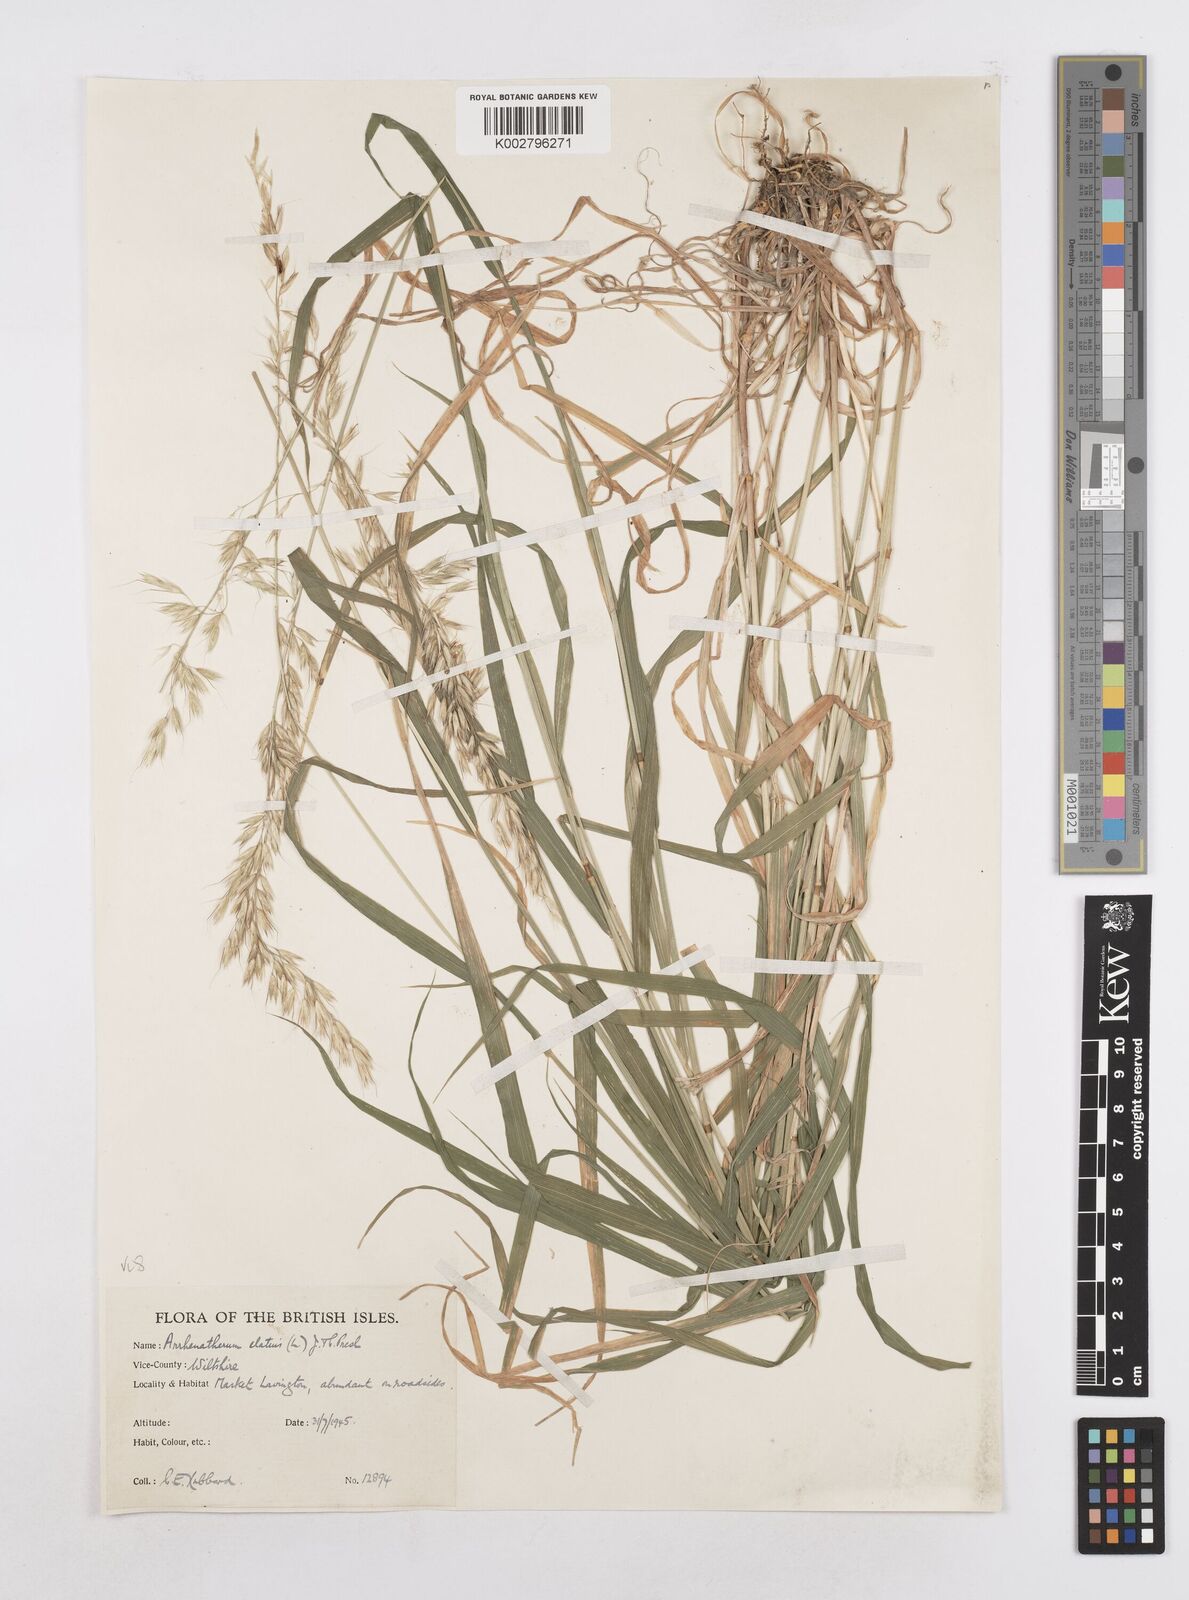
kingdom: Plantae
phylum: Tracheophyta
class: Liliopsida
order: Poales
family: Poaceae
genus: Arrhenatherum
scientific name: Arrhenatherum elatius
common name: Tall oatgrass
